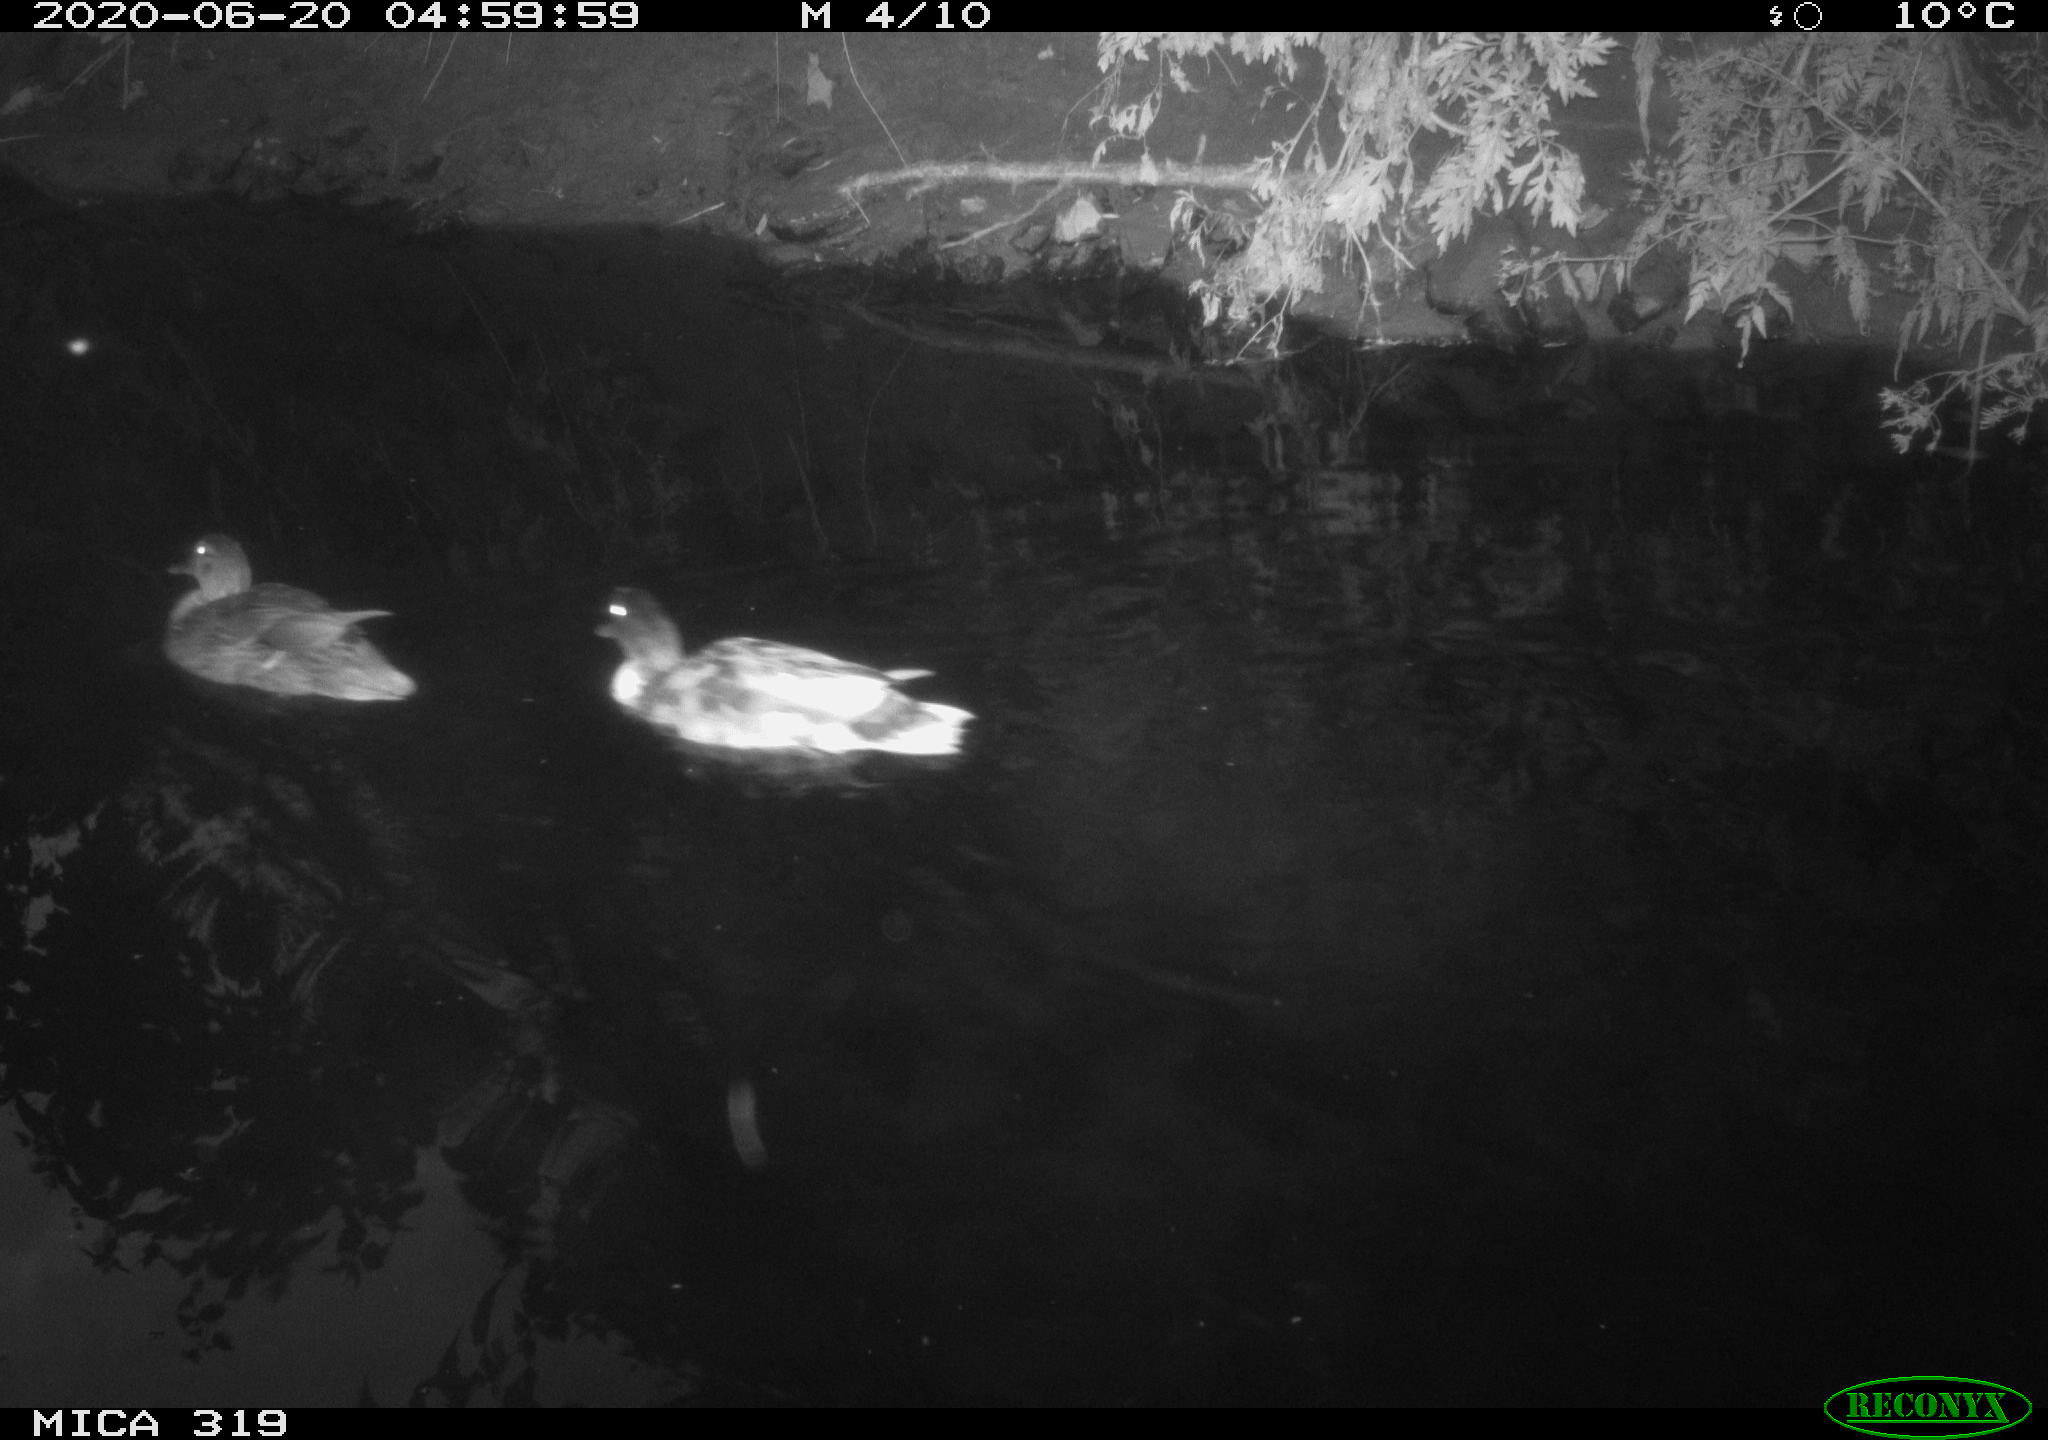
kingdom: Animalia
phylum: Chordata
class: Aves
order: Anseriformes
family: Anatidae
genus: Anas
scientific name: Anas platyrhynchos
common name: Mallard
